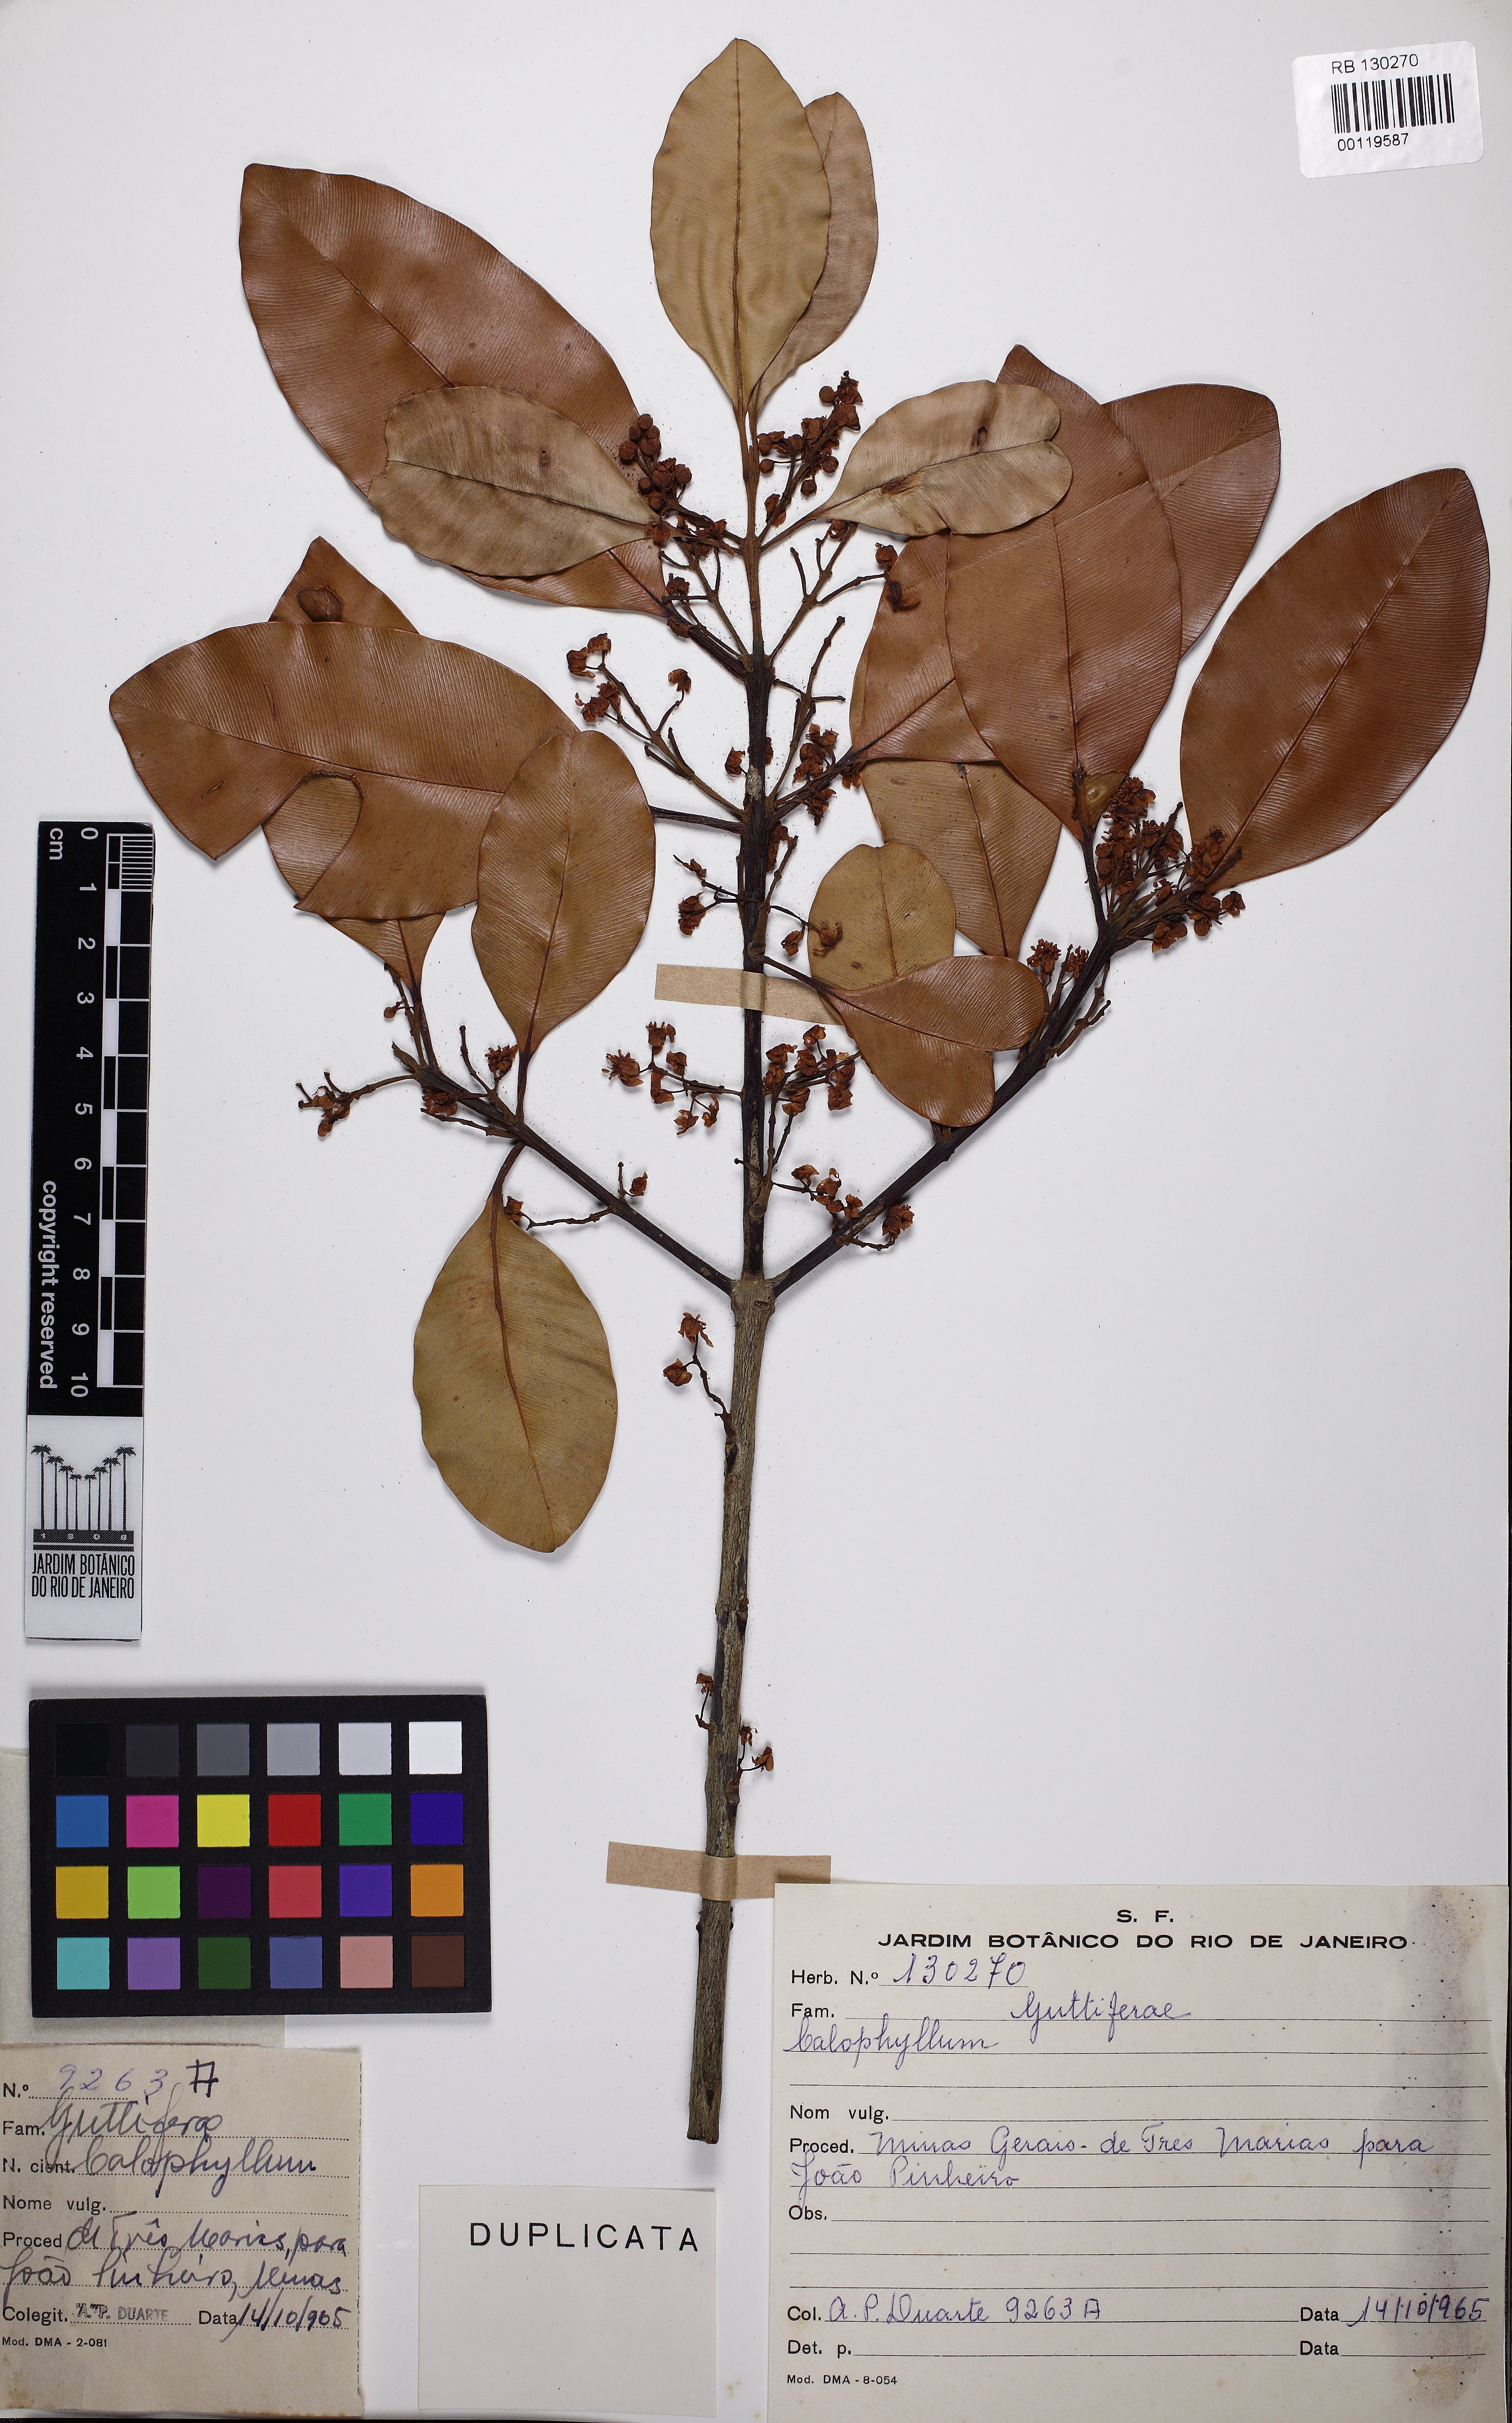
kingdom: Plantae
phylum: Tracheophyta
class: Magnoliopsida
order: Malpighiales
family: Hypericaceae
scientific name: Hypericaceae
